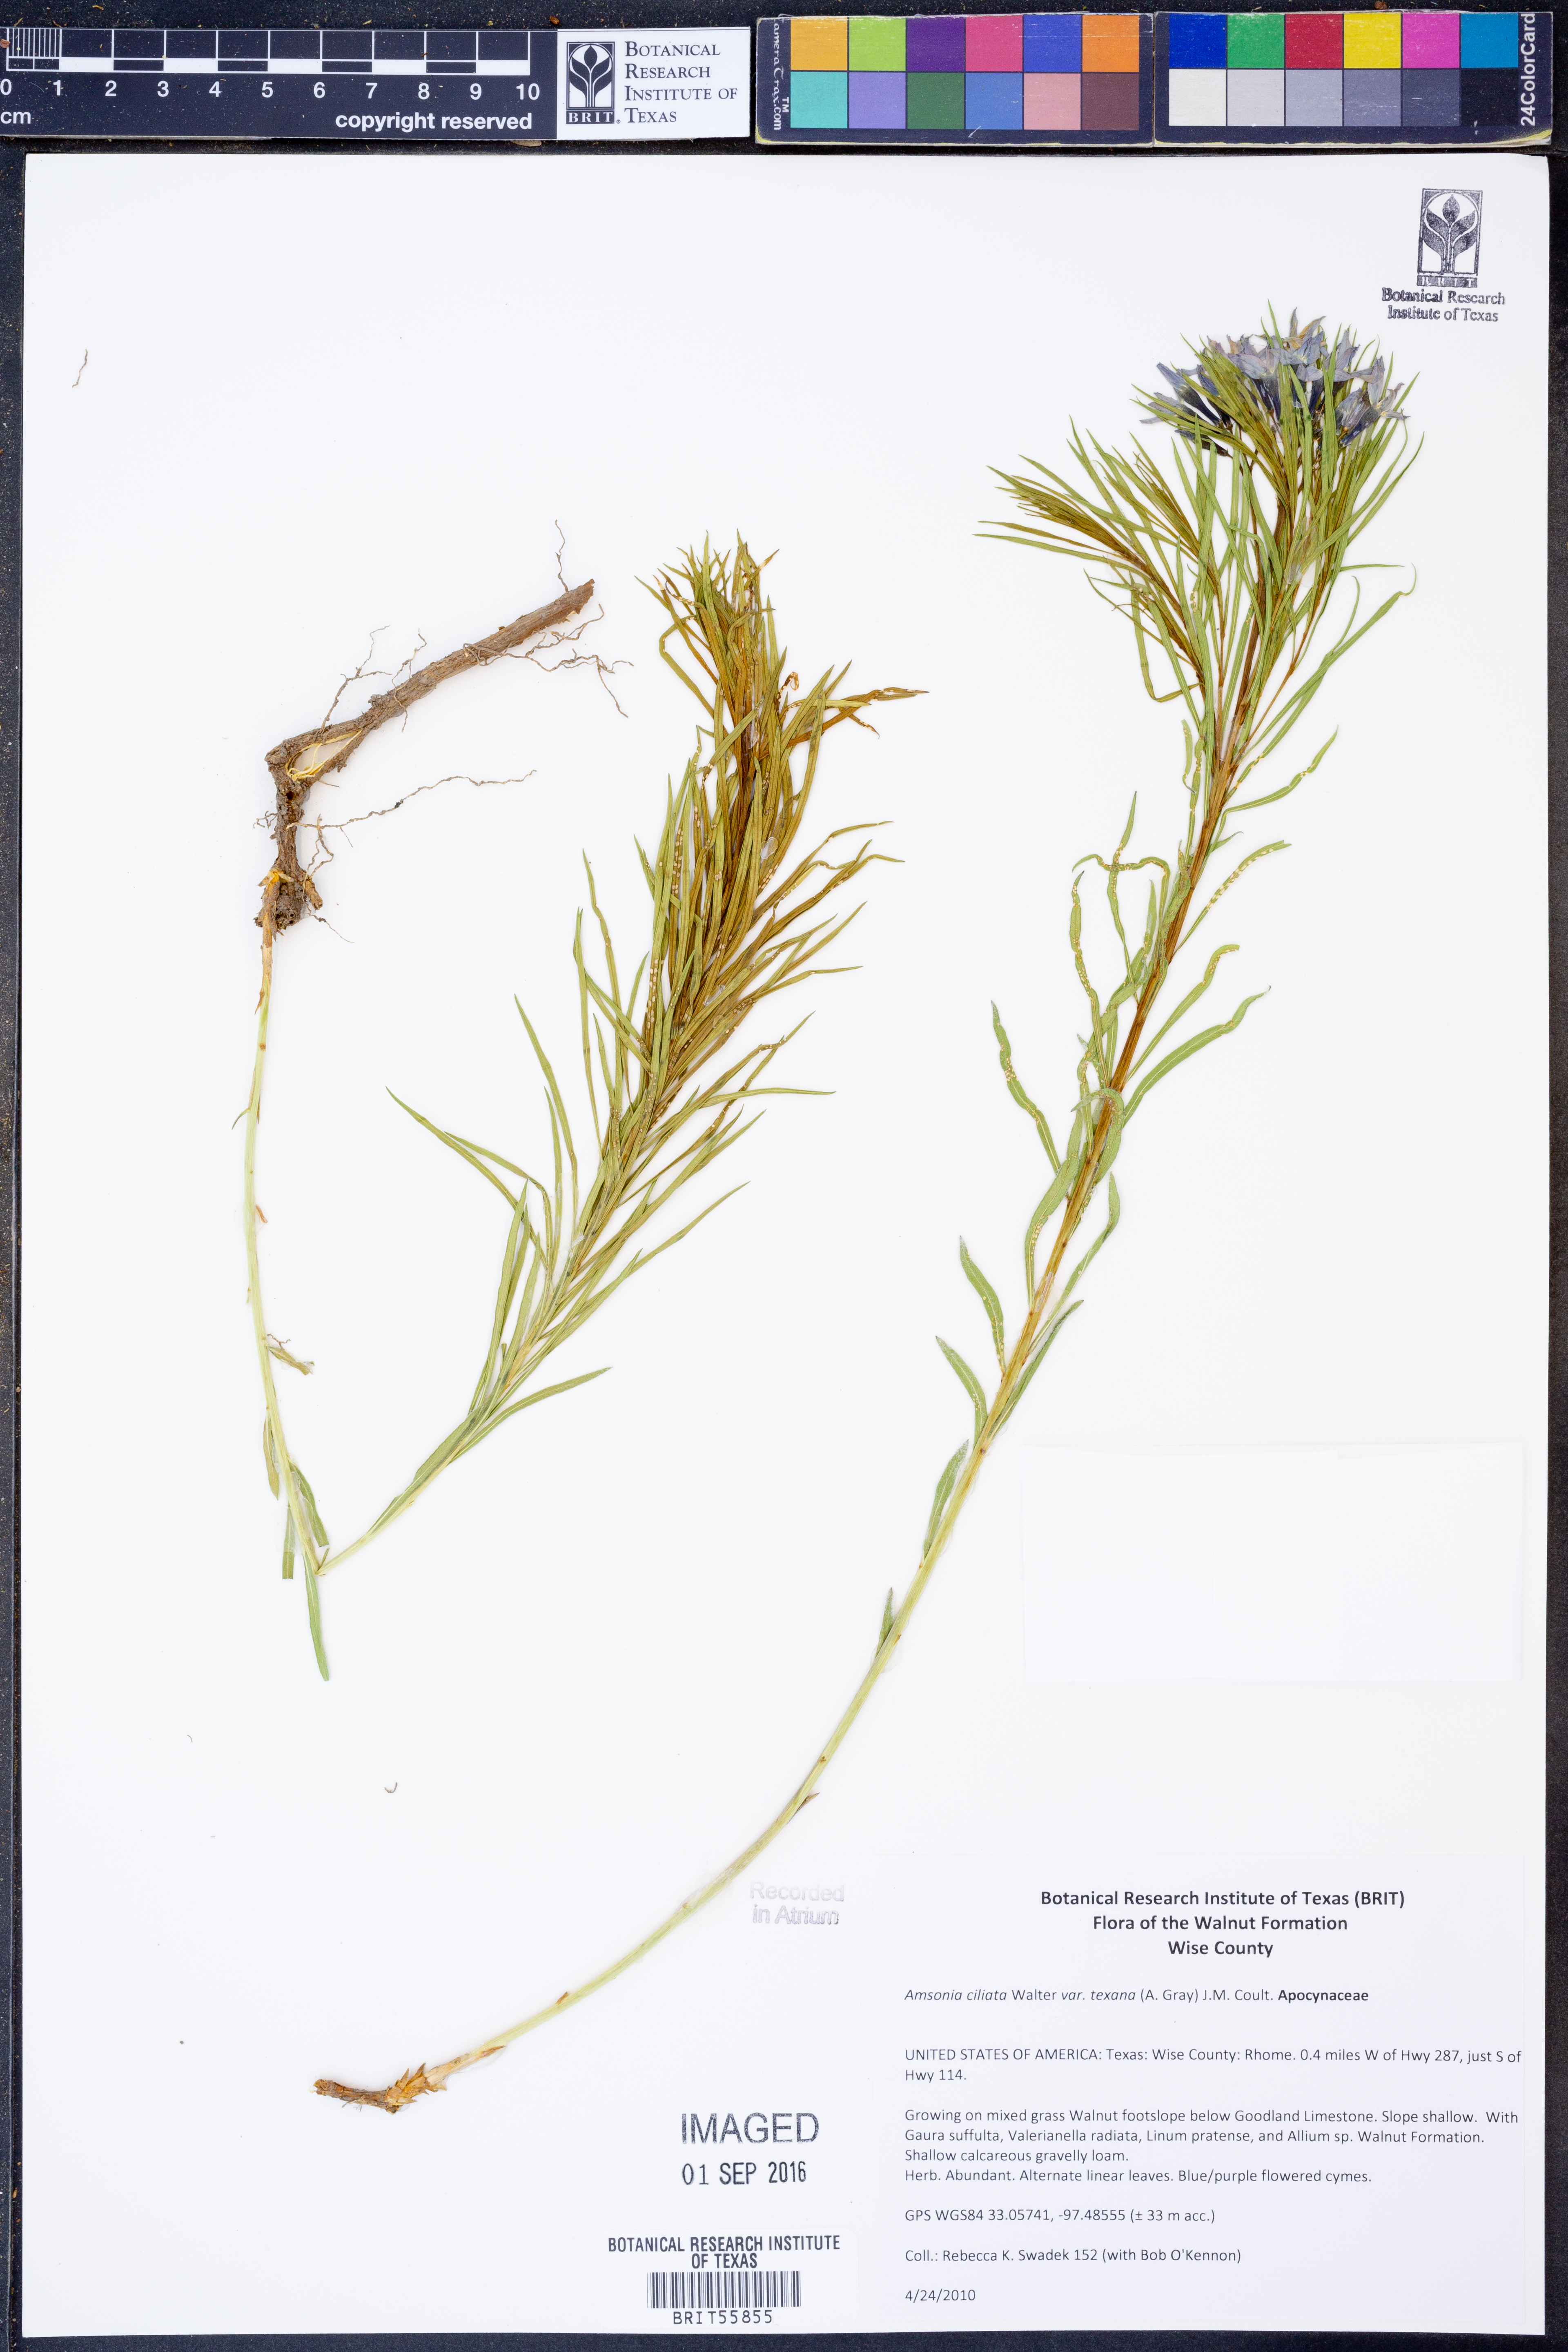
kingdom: Plantae
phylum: Tracheophyta
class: Magnoliopsida
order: Gentianales
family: Apocynaceae
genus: Amsonia
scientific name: Amsonia ciliata
